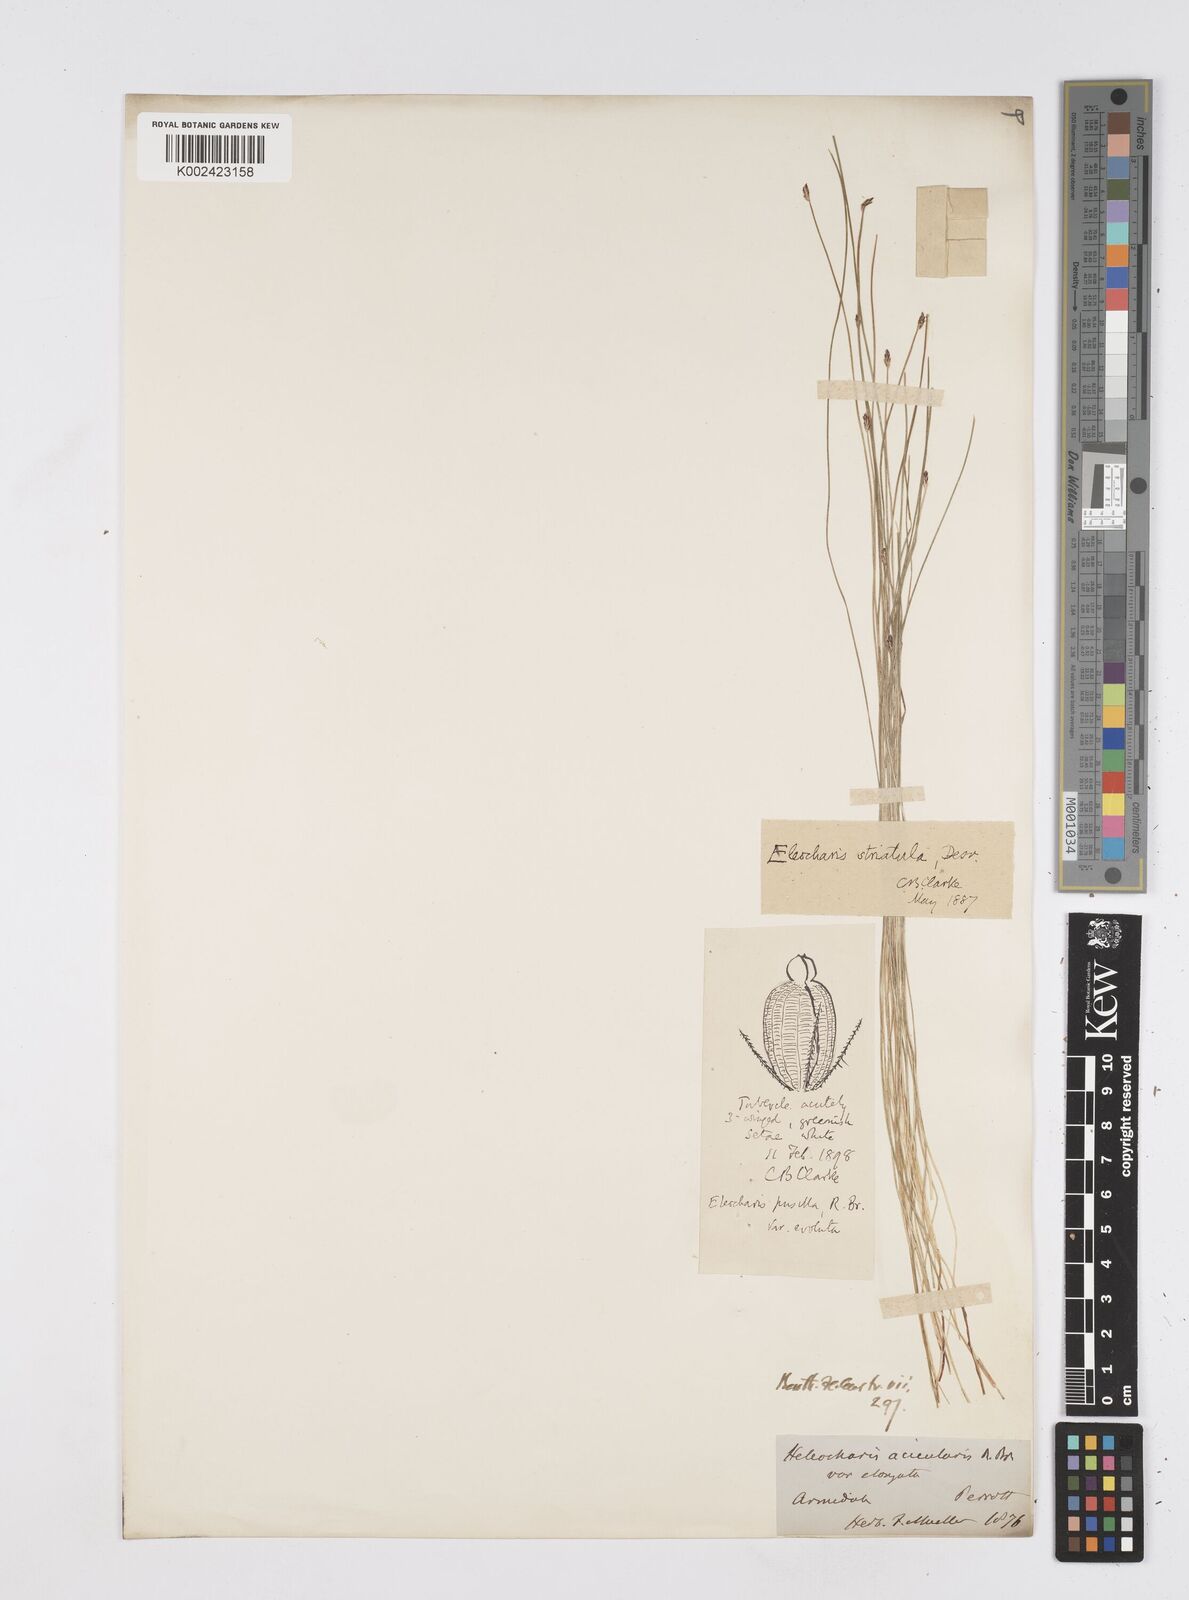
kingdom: Plantae
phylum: Tracheophyta
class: Liliopsida
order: Poales
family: Cyperaceae
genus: Eleocharis
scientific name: Eleocharis pusilla
